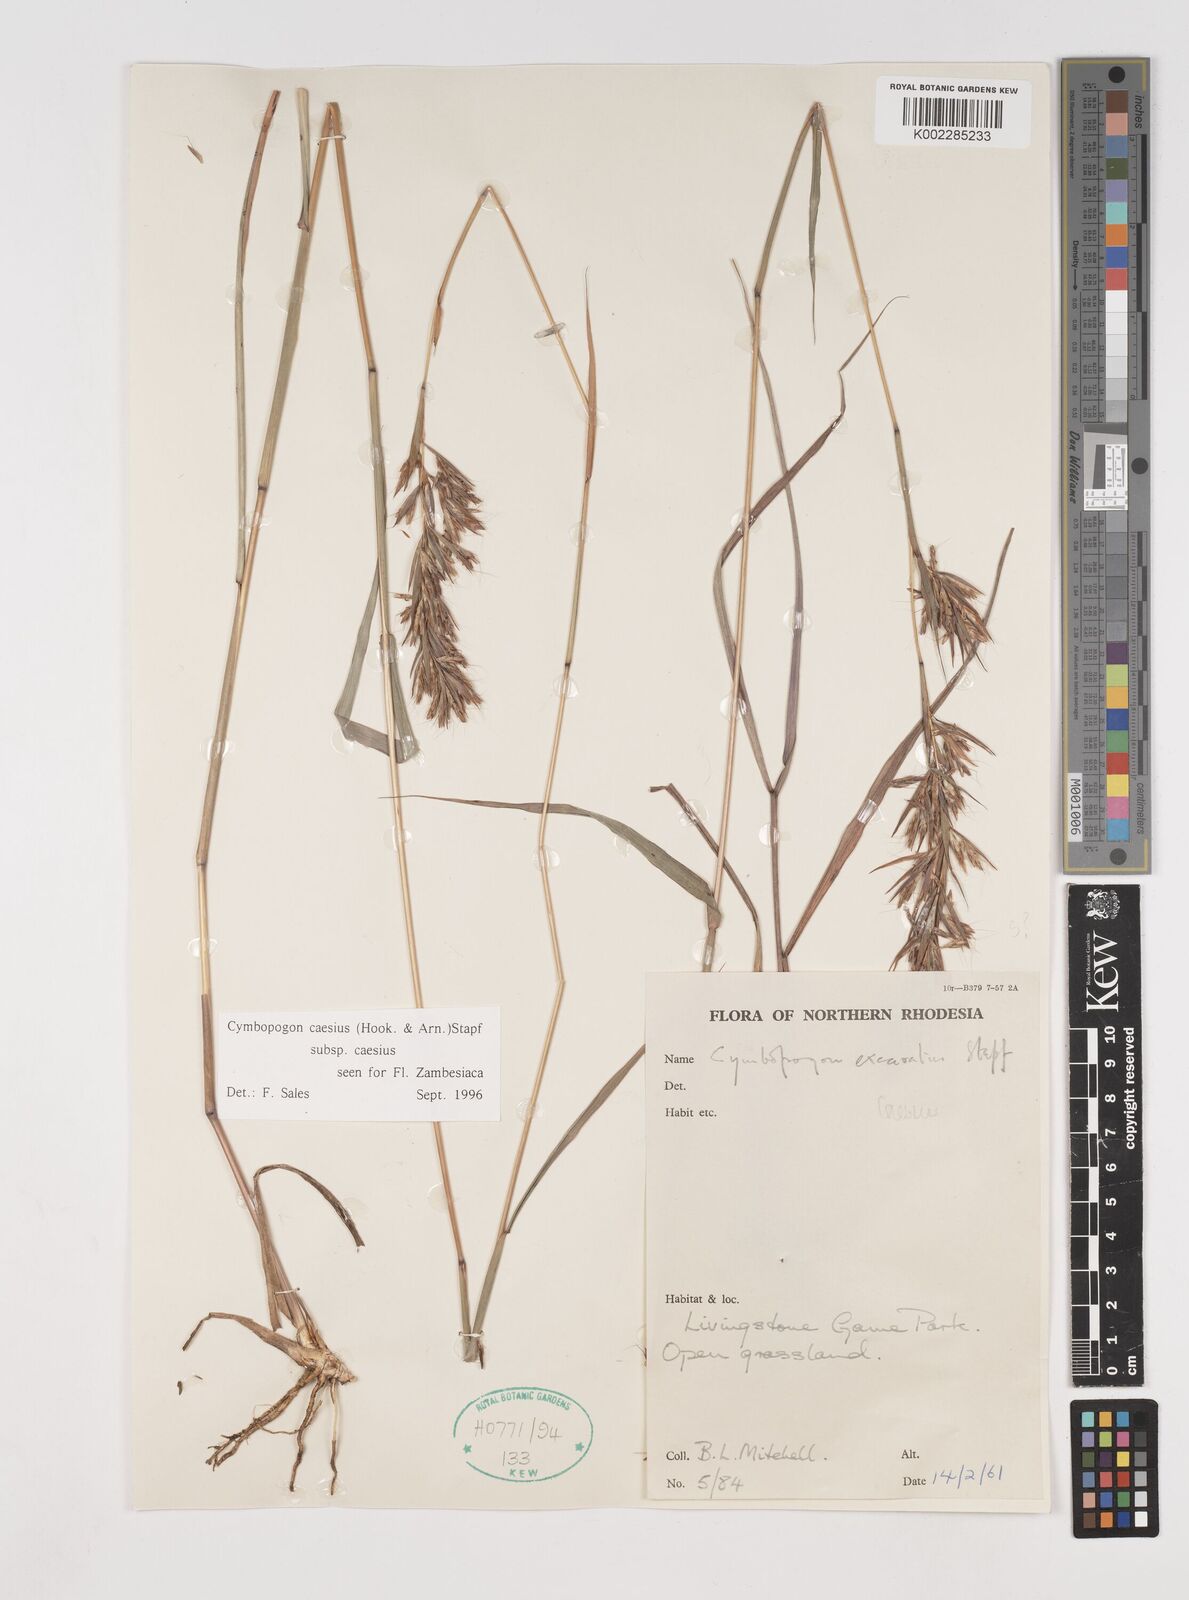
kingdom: Plantae
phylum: Tracheophyta
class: Liliopsida
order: Poales
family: Poaceae
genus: Cymbopogon
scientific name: Cymbopogon caesius
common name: Kachi grass
